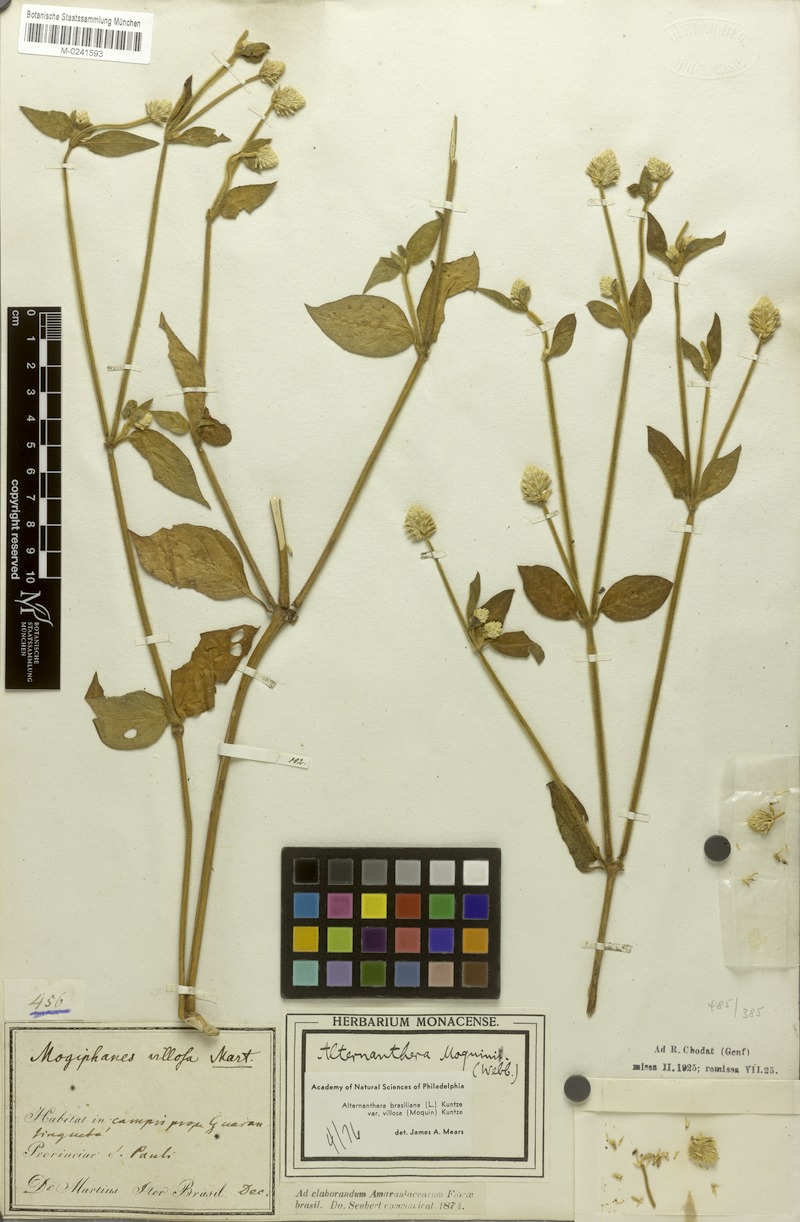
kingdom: Plantae
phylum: Tracheophyta
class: Magnoliopsida
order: Caryophyllales
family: Amaranthaceae
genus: Alternanthera
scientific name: Alternanthera ramosissima
